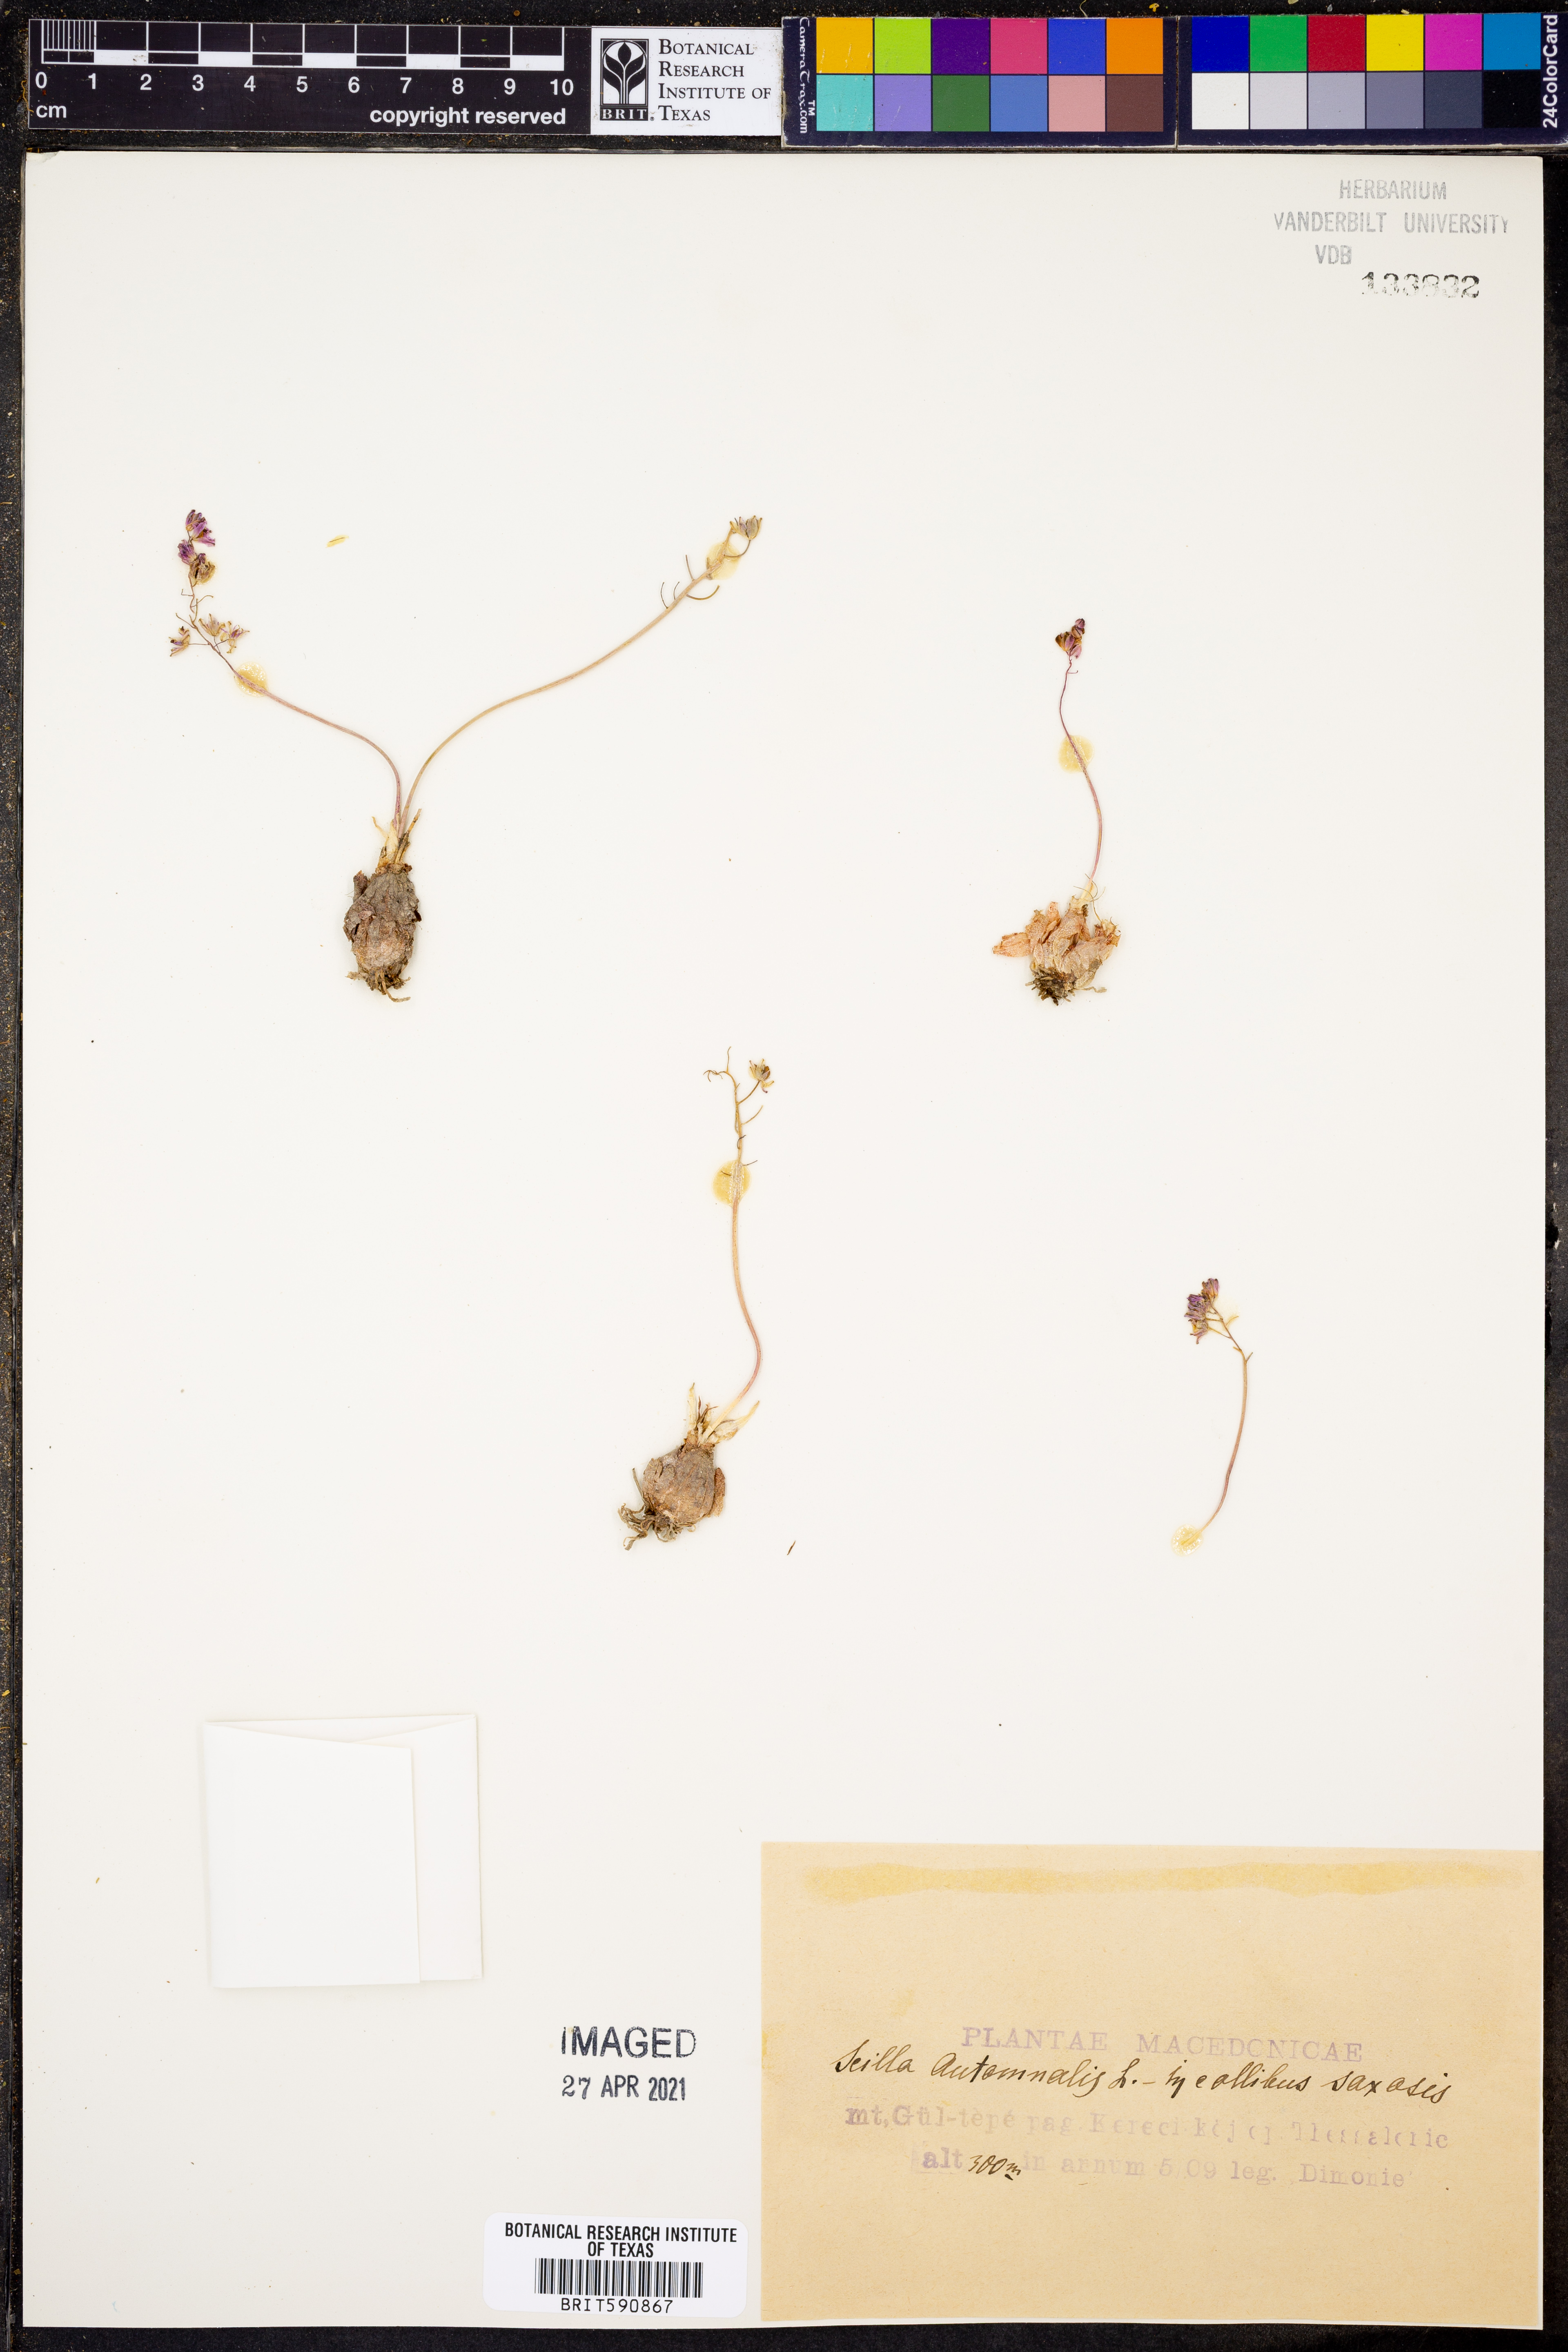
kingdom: Plantae
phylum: Tracheophyta
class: Liliopsida
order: Asparagales
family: Asparagaceae
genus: Scilla
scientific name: Scilla autumnalis
